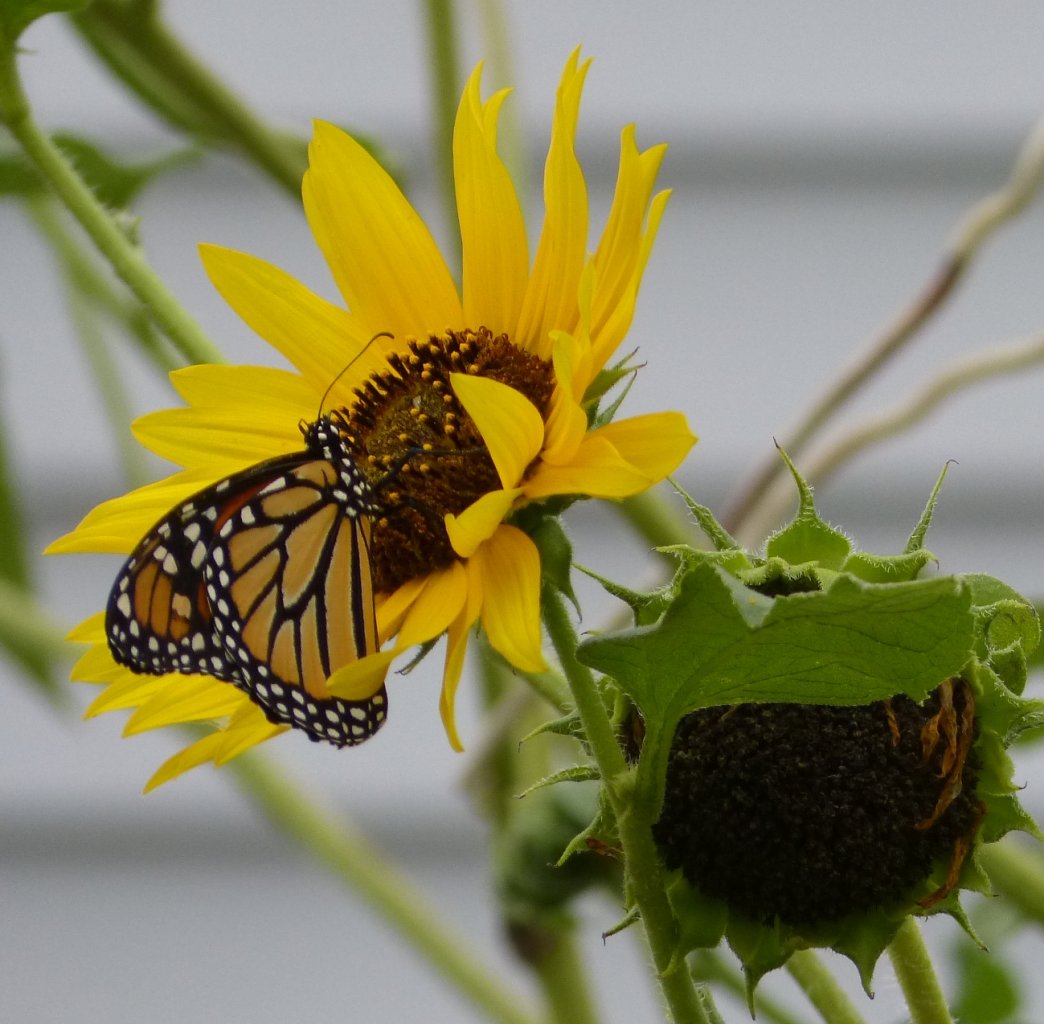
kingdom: Animalia
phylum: Arthropoda
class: Insecta
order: Lepidoptera
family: Nymphalidae
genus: Danaus
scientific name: Danaus plexippus
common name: Monarch
